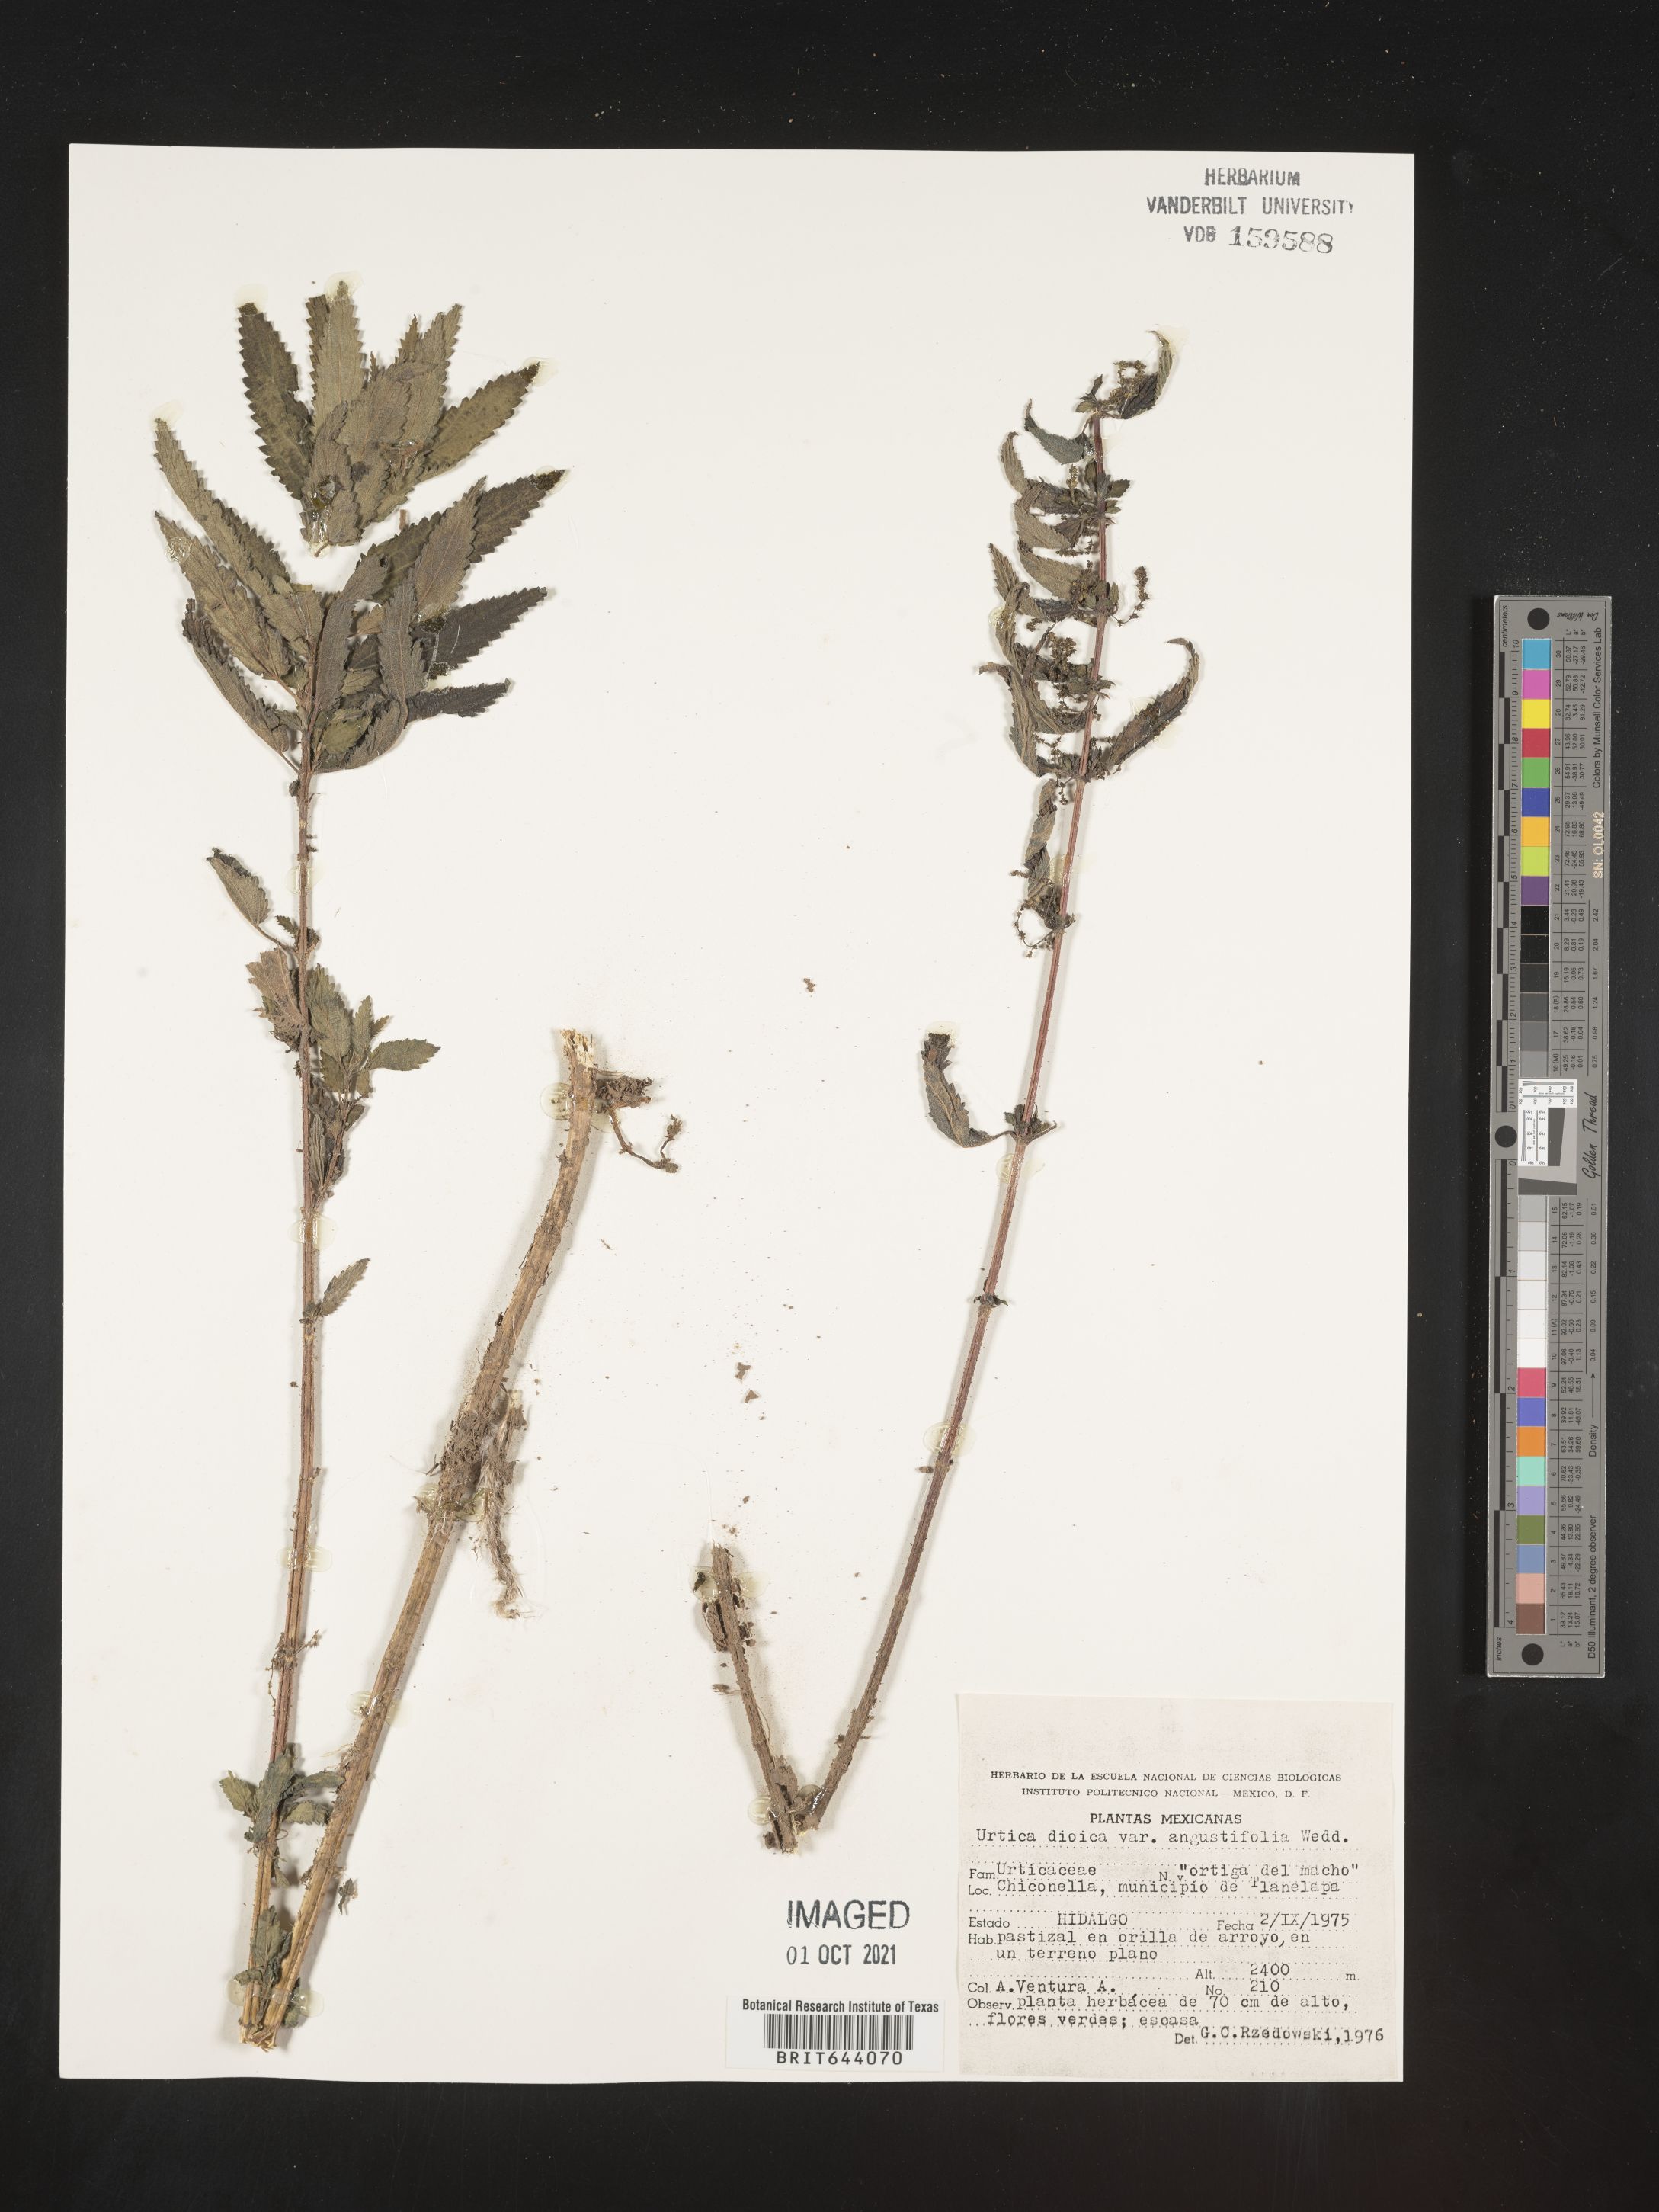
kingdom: Plantae
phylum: Tracheophyta
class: Magnoliopsida
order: Rosales
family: Urticaceae
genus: Urtica
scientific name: Urtica
